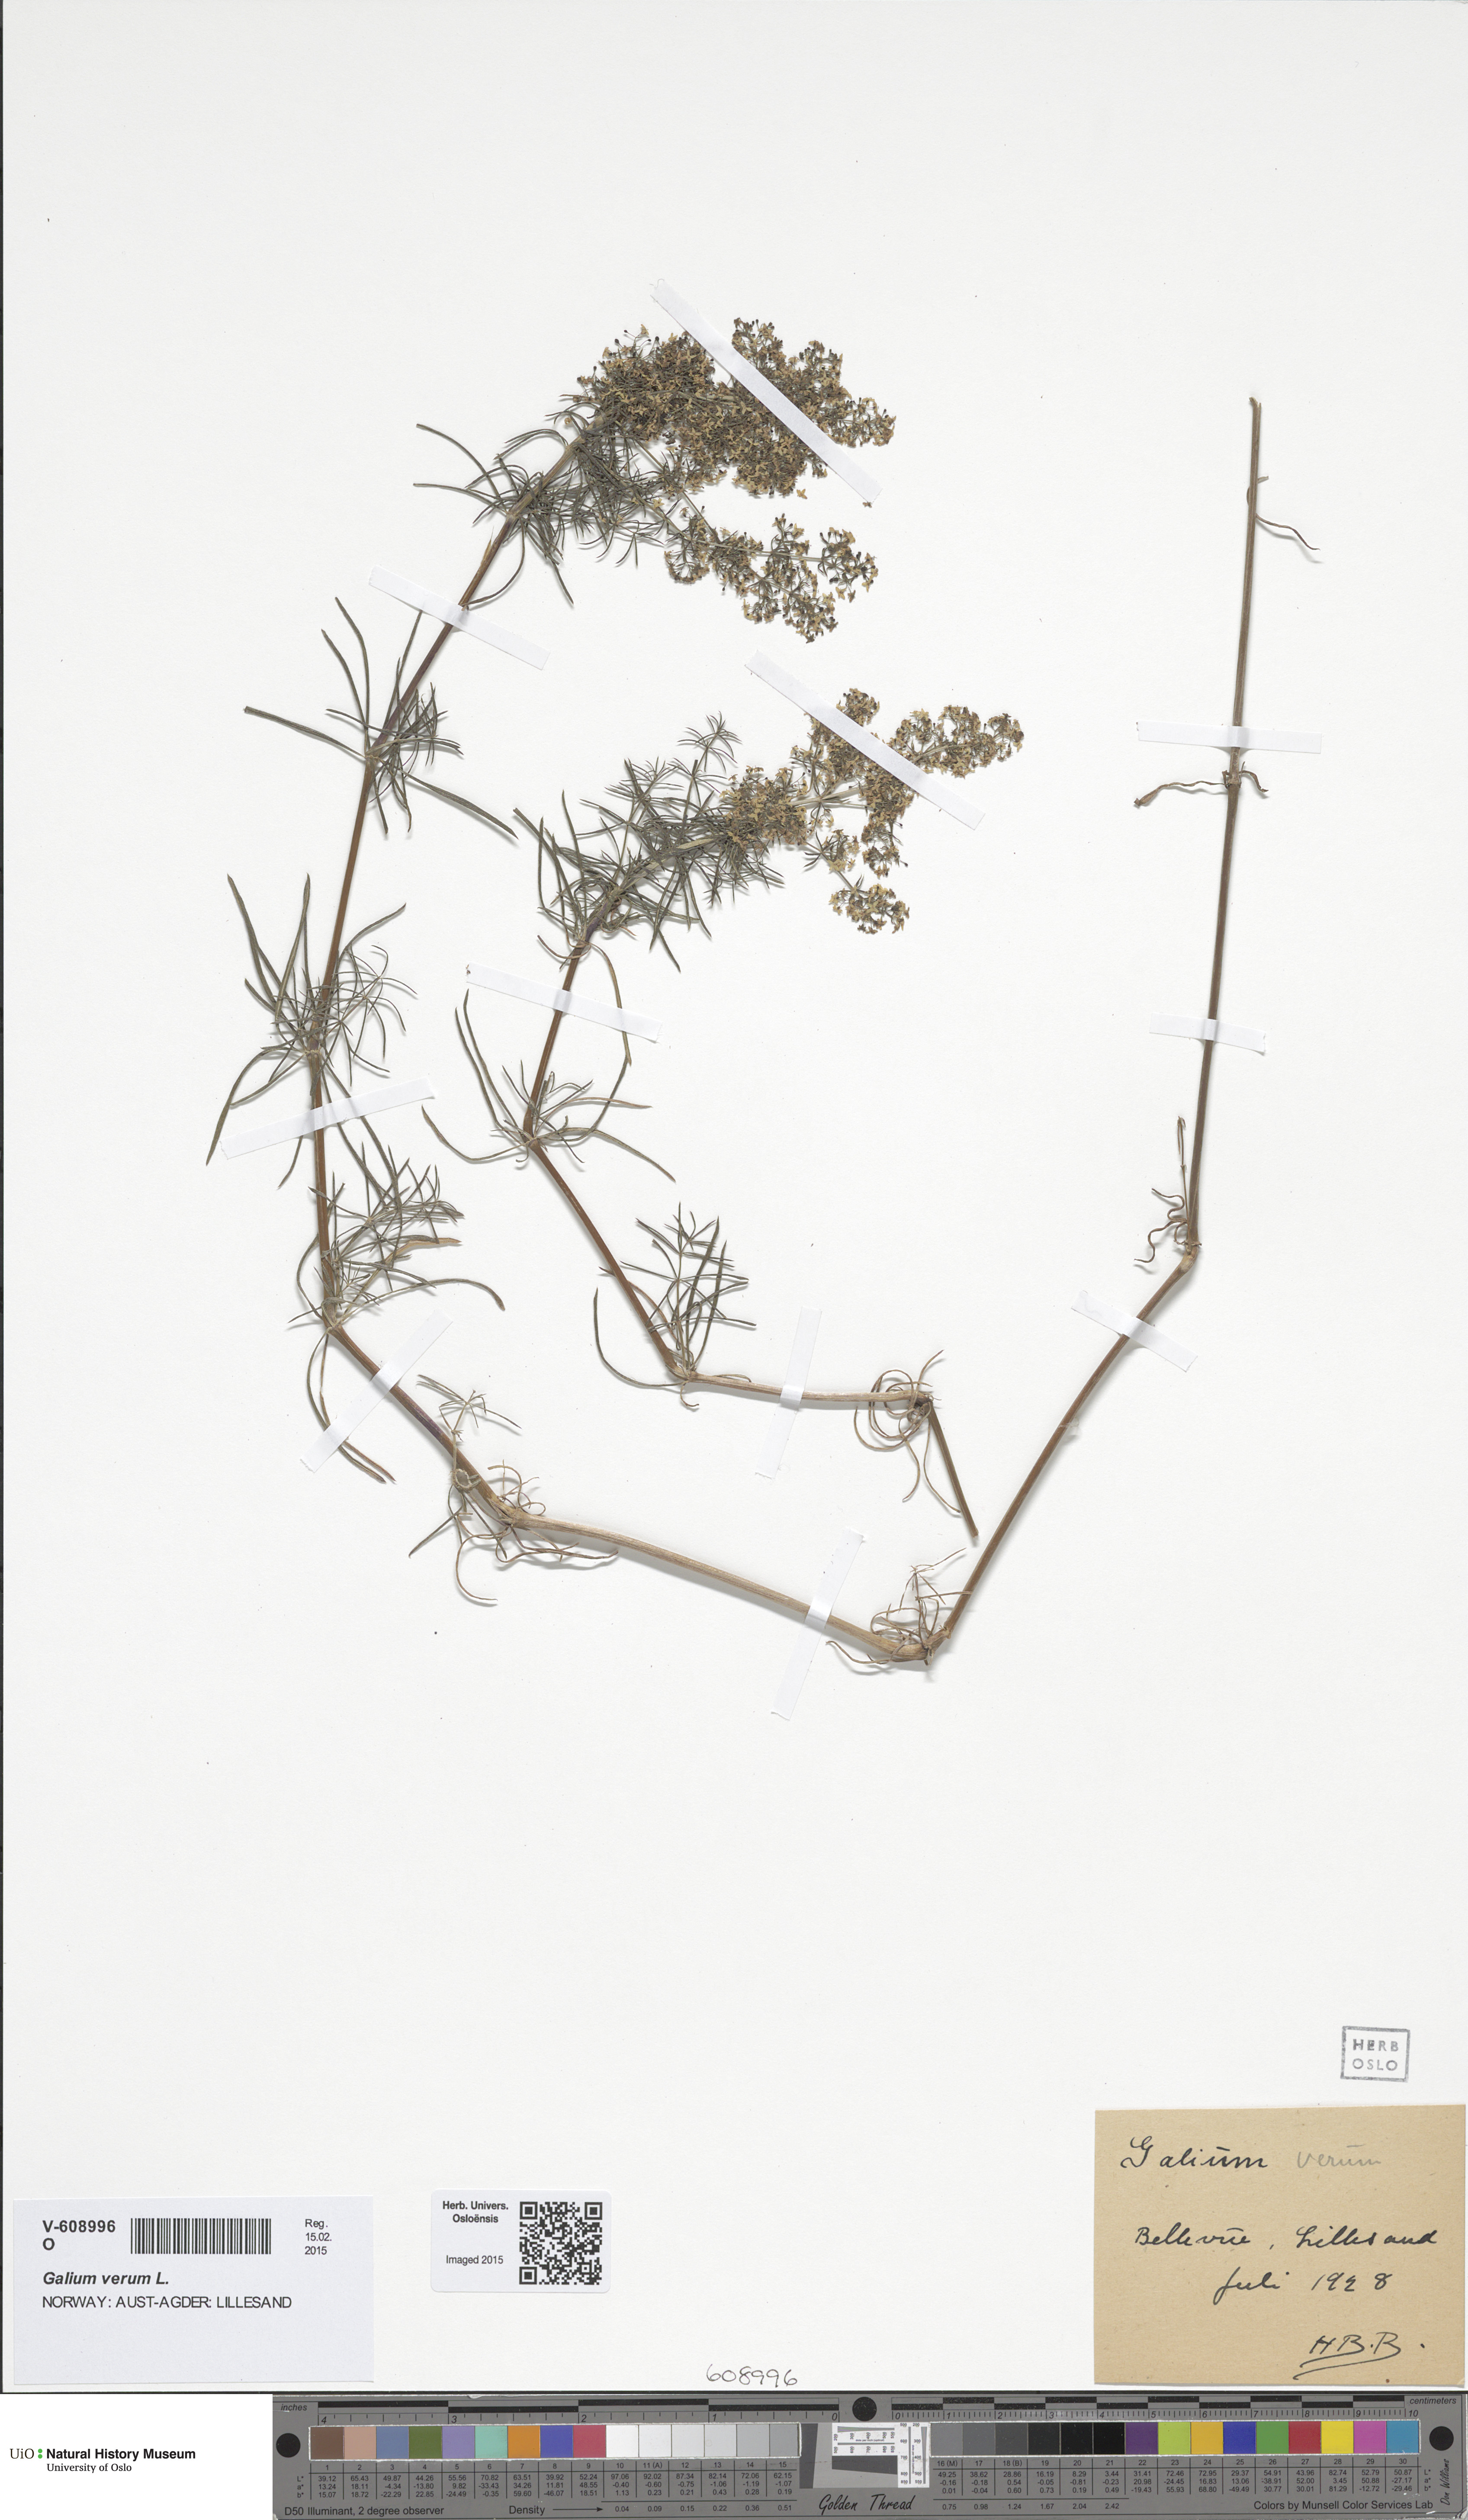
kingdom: Plantae
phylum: Tracheophyta
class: Magnoliopsida
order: Gentianales
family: Rubiaceae
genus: Galium
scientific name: Galium verum
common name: Lady's bedstraw
